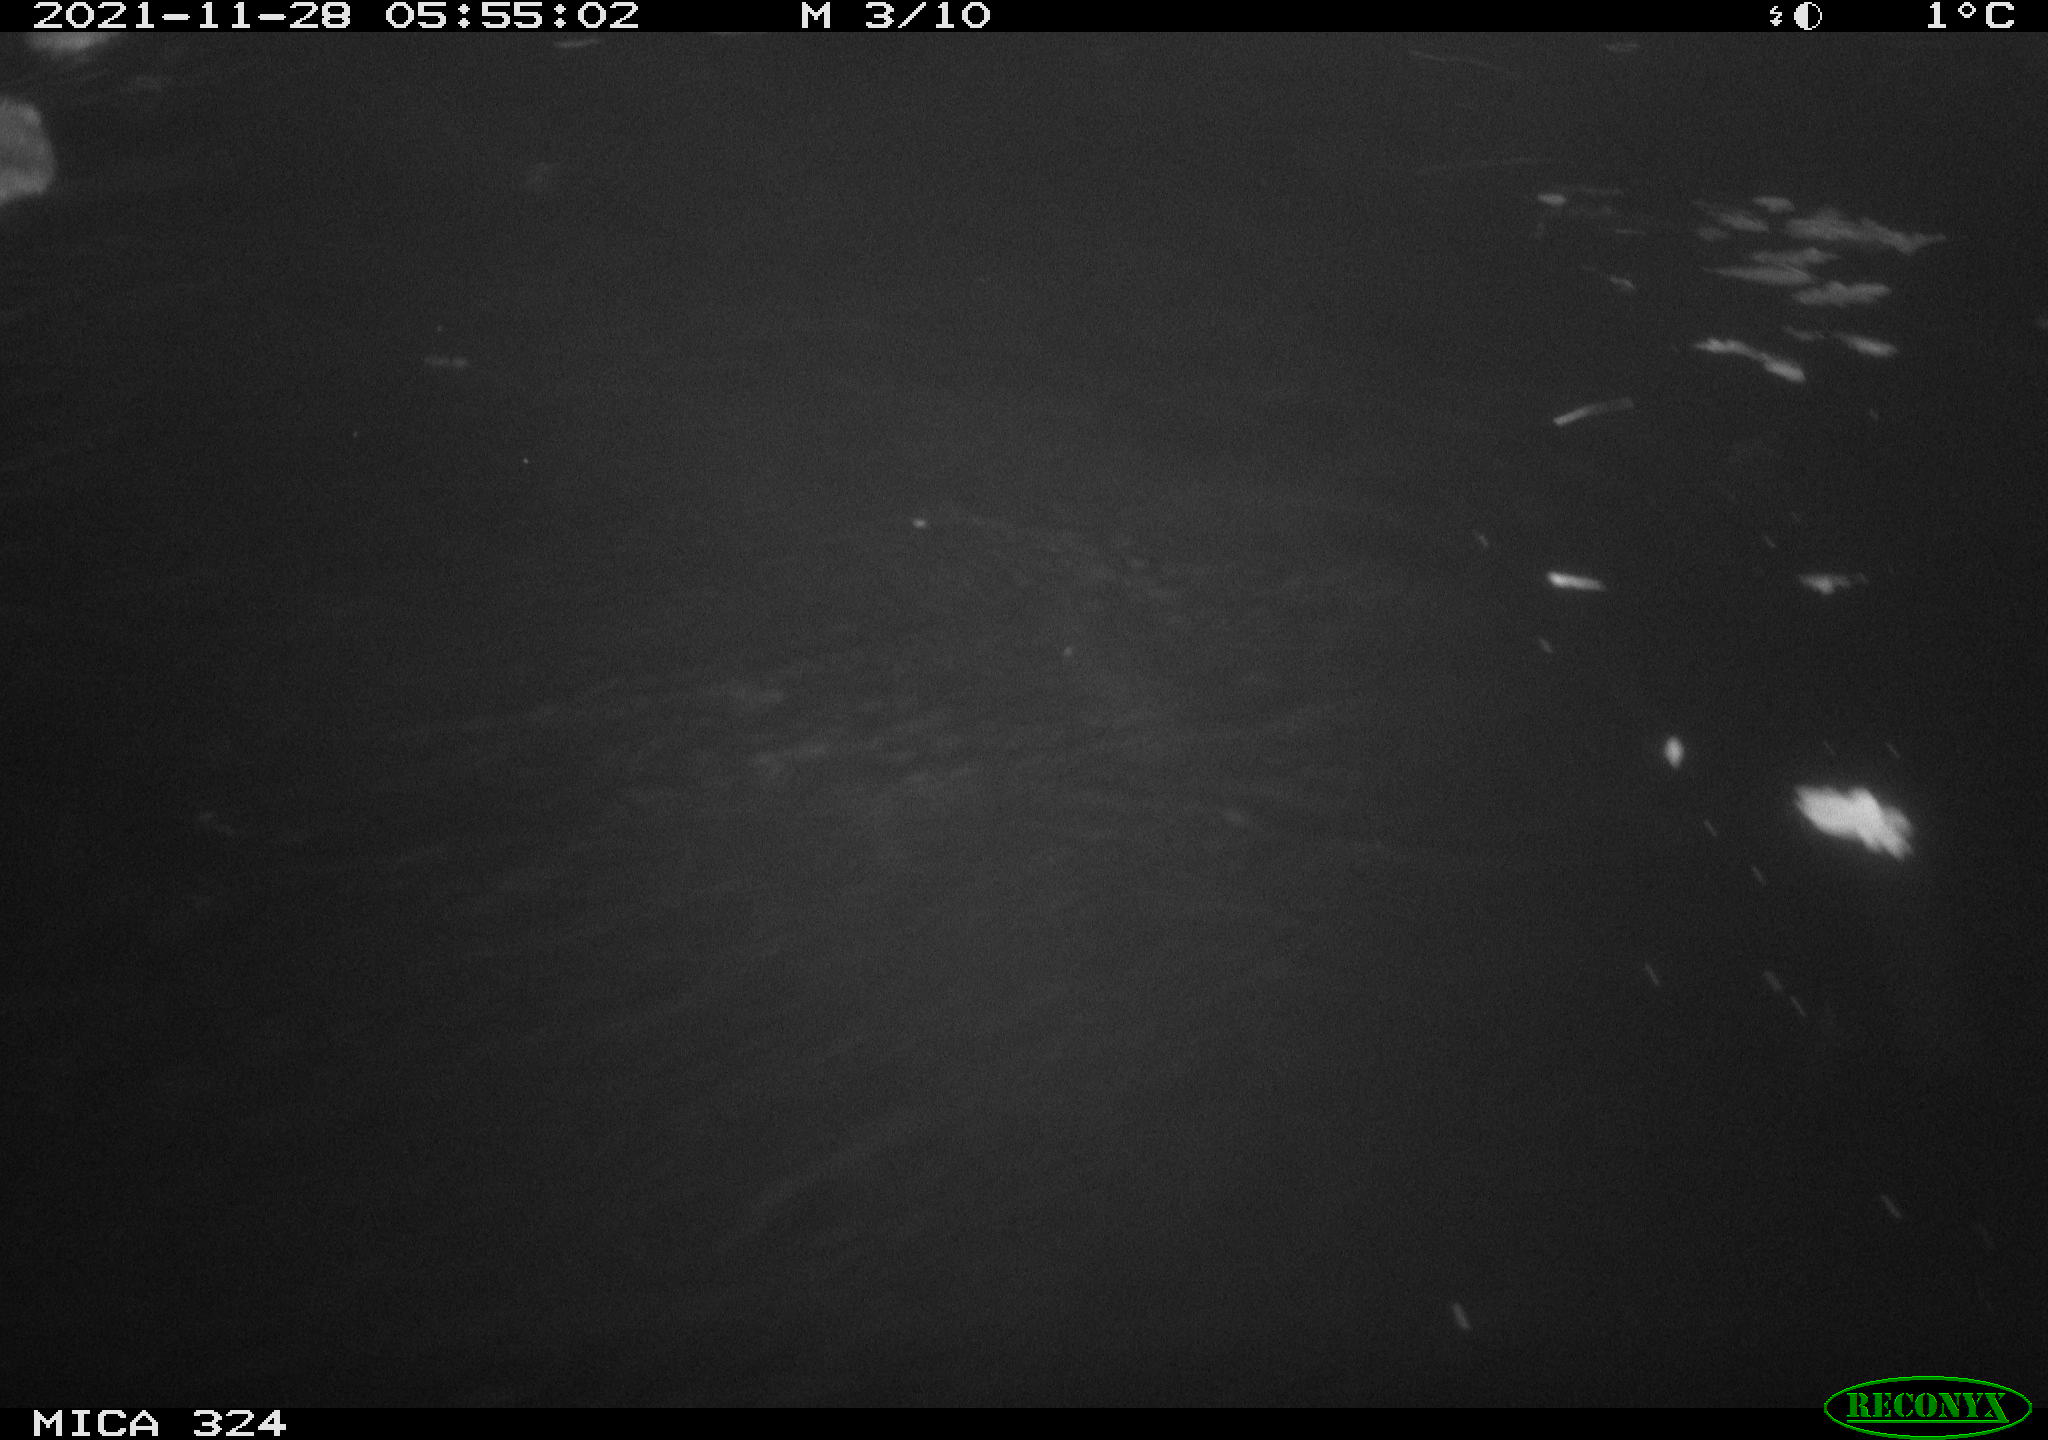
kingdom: Animalia
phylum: Chordata
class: Mammalia
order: Rodentia
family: Cricetidae
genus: Ondatra
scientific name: Ondatra zibethicus
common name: Muskrat
